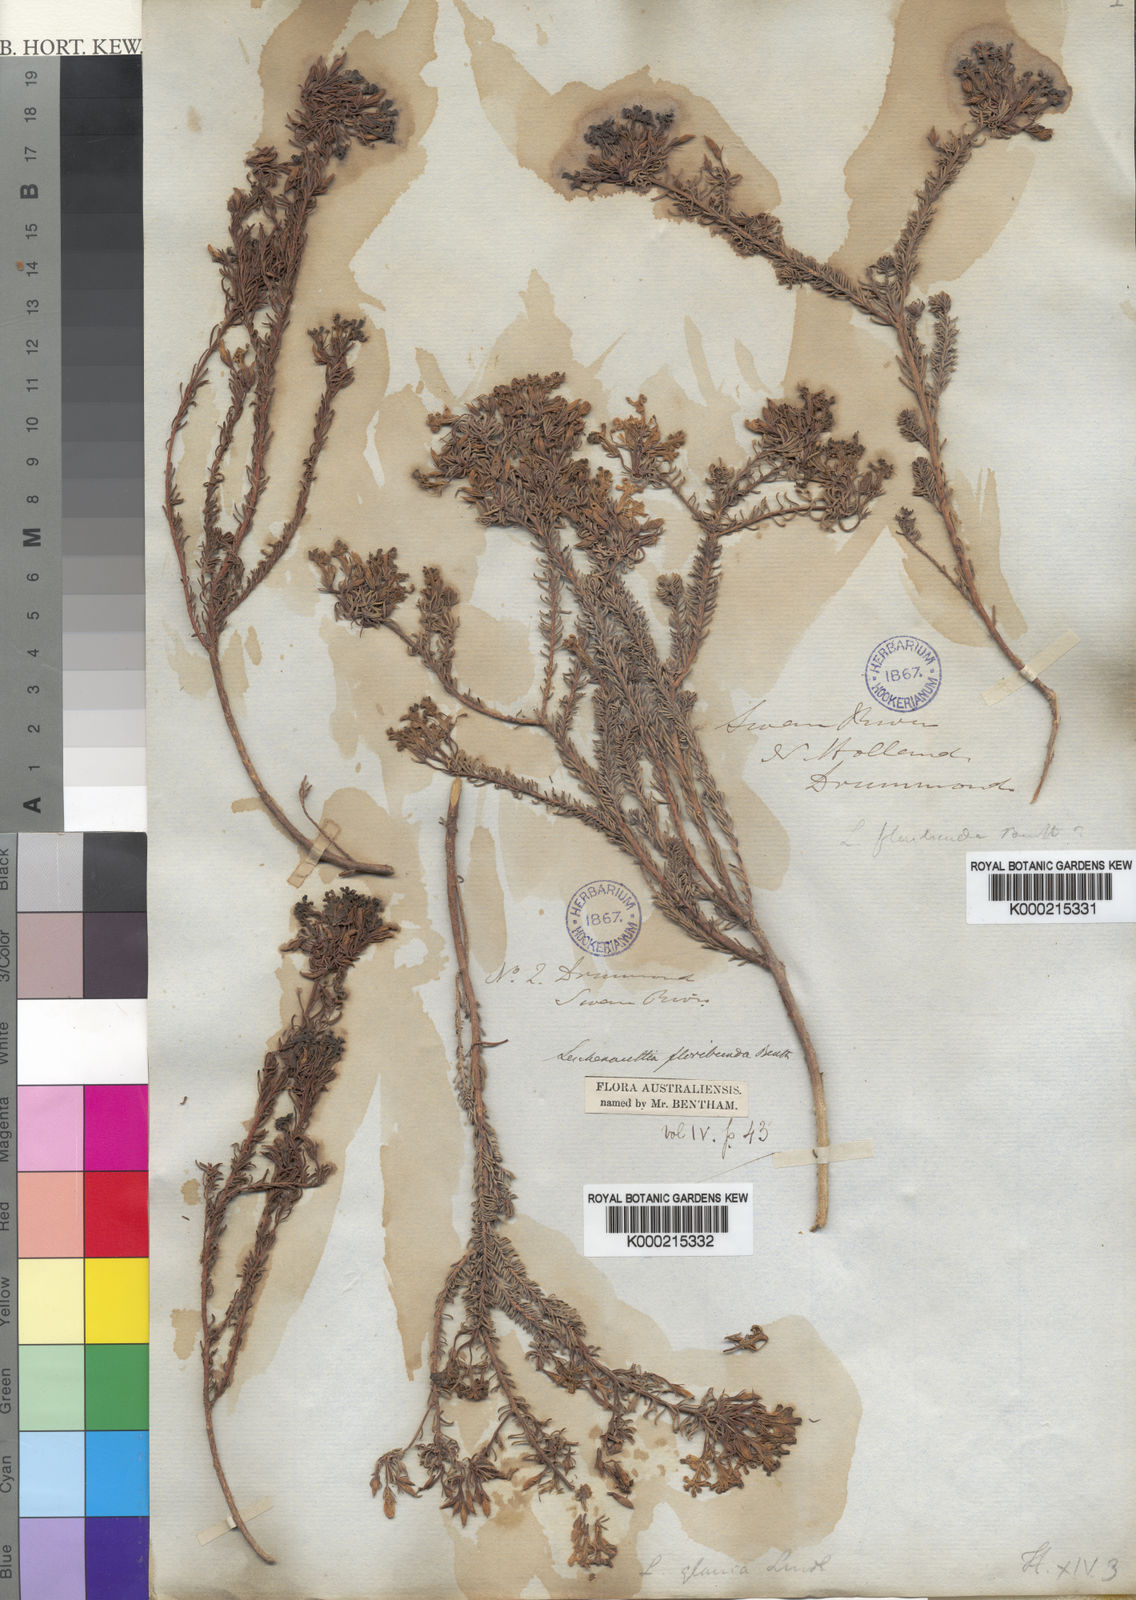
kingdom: Plantae
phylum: Tracheophyta
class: Magnoliopsida
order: Asterales
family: Goodeniaceae
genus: Leschenaultia
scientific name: Leschenaultia floribunda
